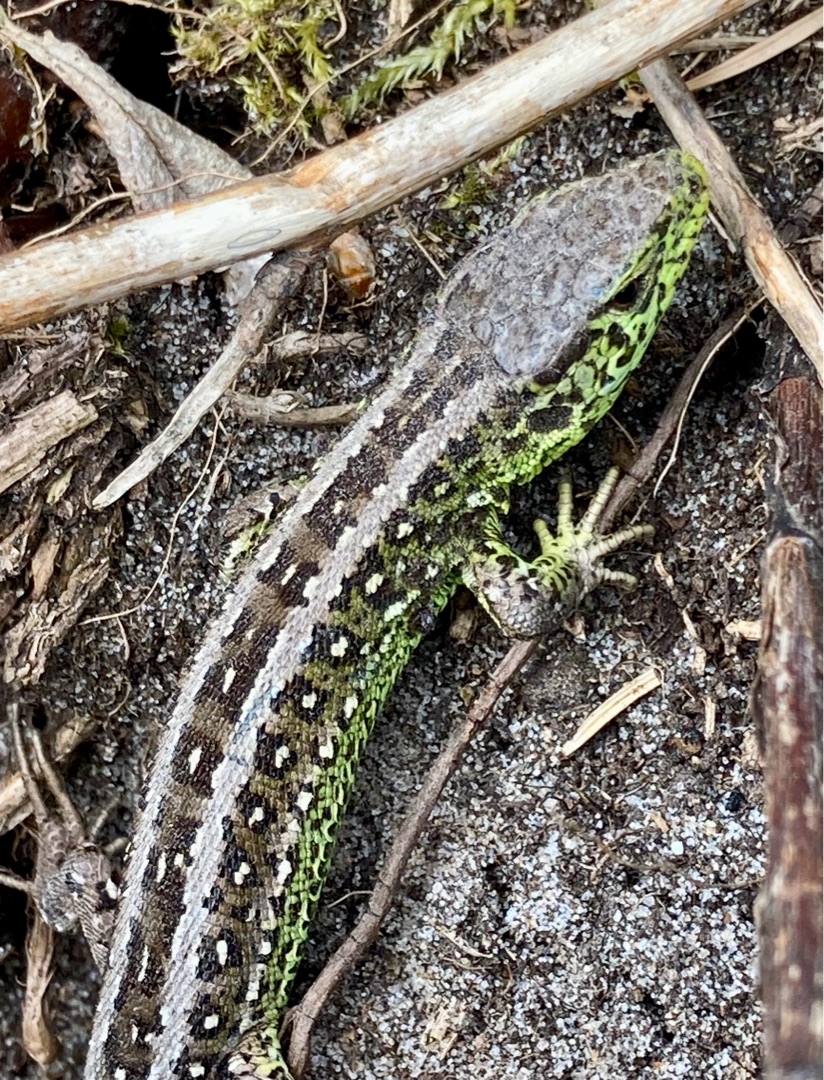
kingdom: Animalia
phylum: Chordata
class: Squamata
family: Lacertidae
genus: Lacerta
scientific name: Lacerta agilis
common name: Markfirben
